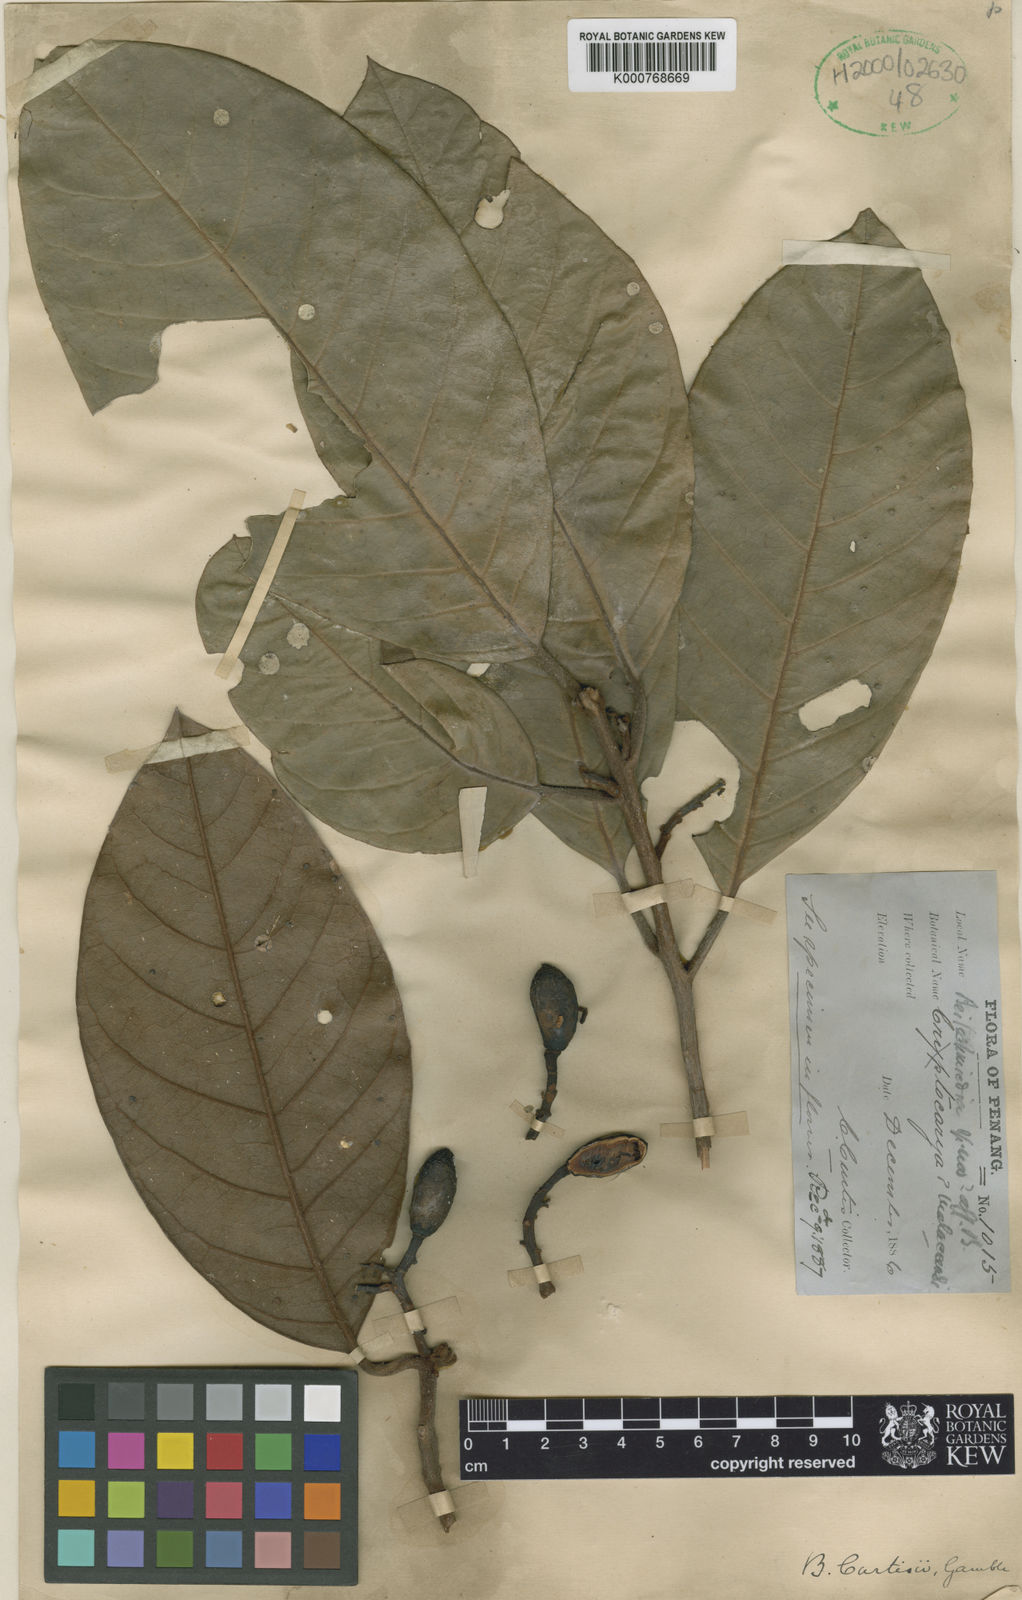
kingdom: Plantae
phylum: Tracheophyta
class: Magnoliopsida
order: Laurales
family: Lauraceae
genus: Beilschmiedia
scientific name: Beilschmiedia madang
